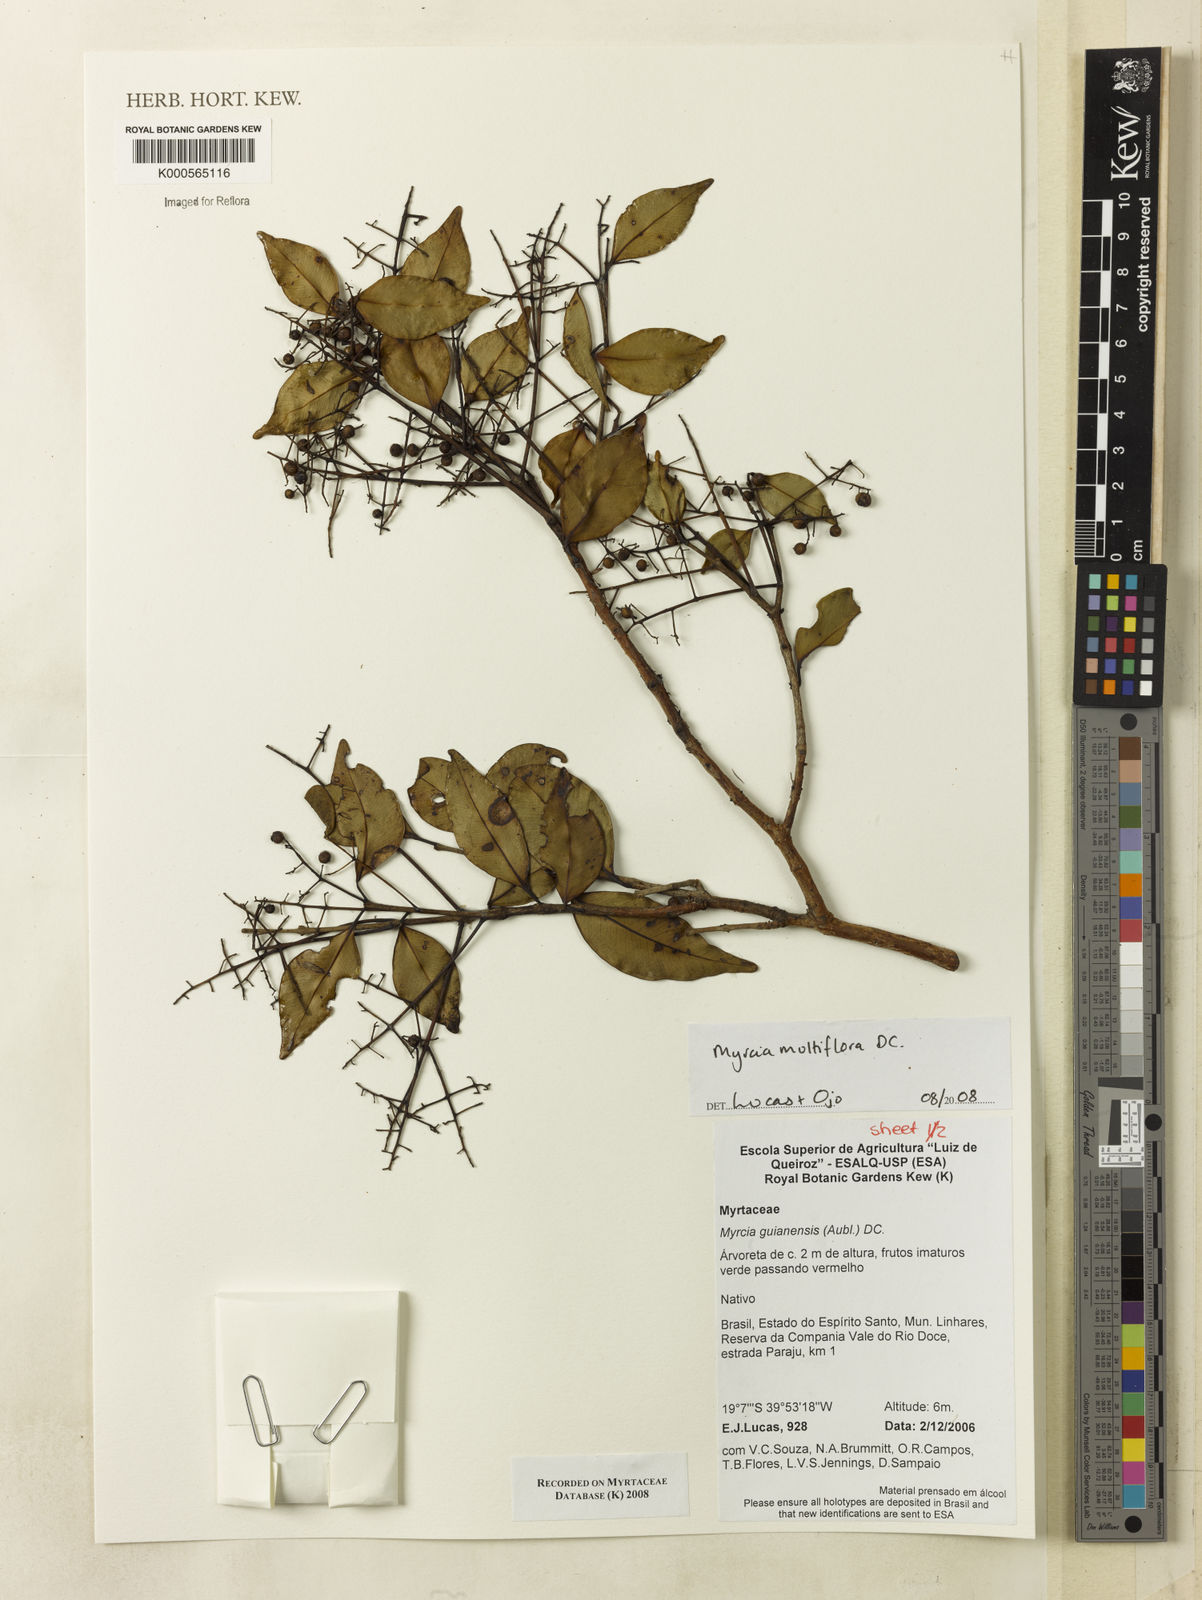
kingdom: Plantae
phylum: Tracheophyta
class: Magnoliopsida
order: Myrtales
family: Myrtaceae
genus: Myrcia
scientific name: Myrcia multiflora
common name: Pedra hume
